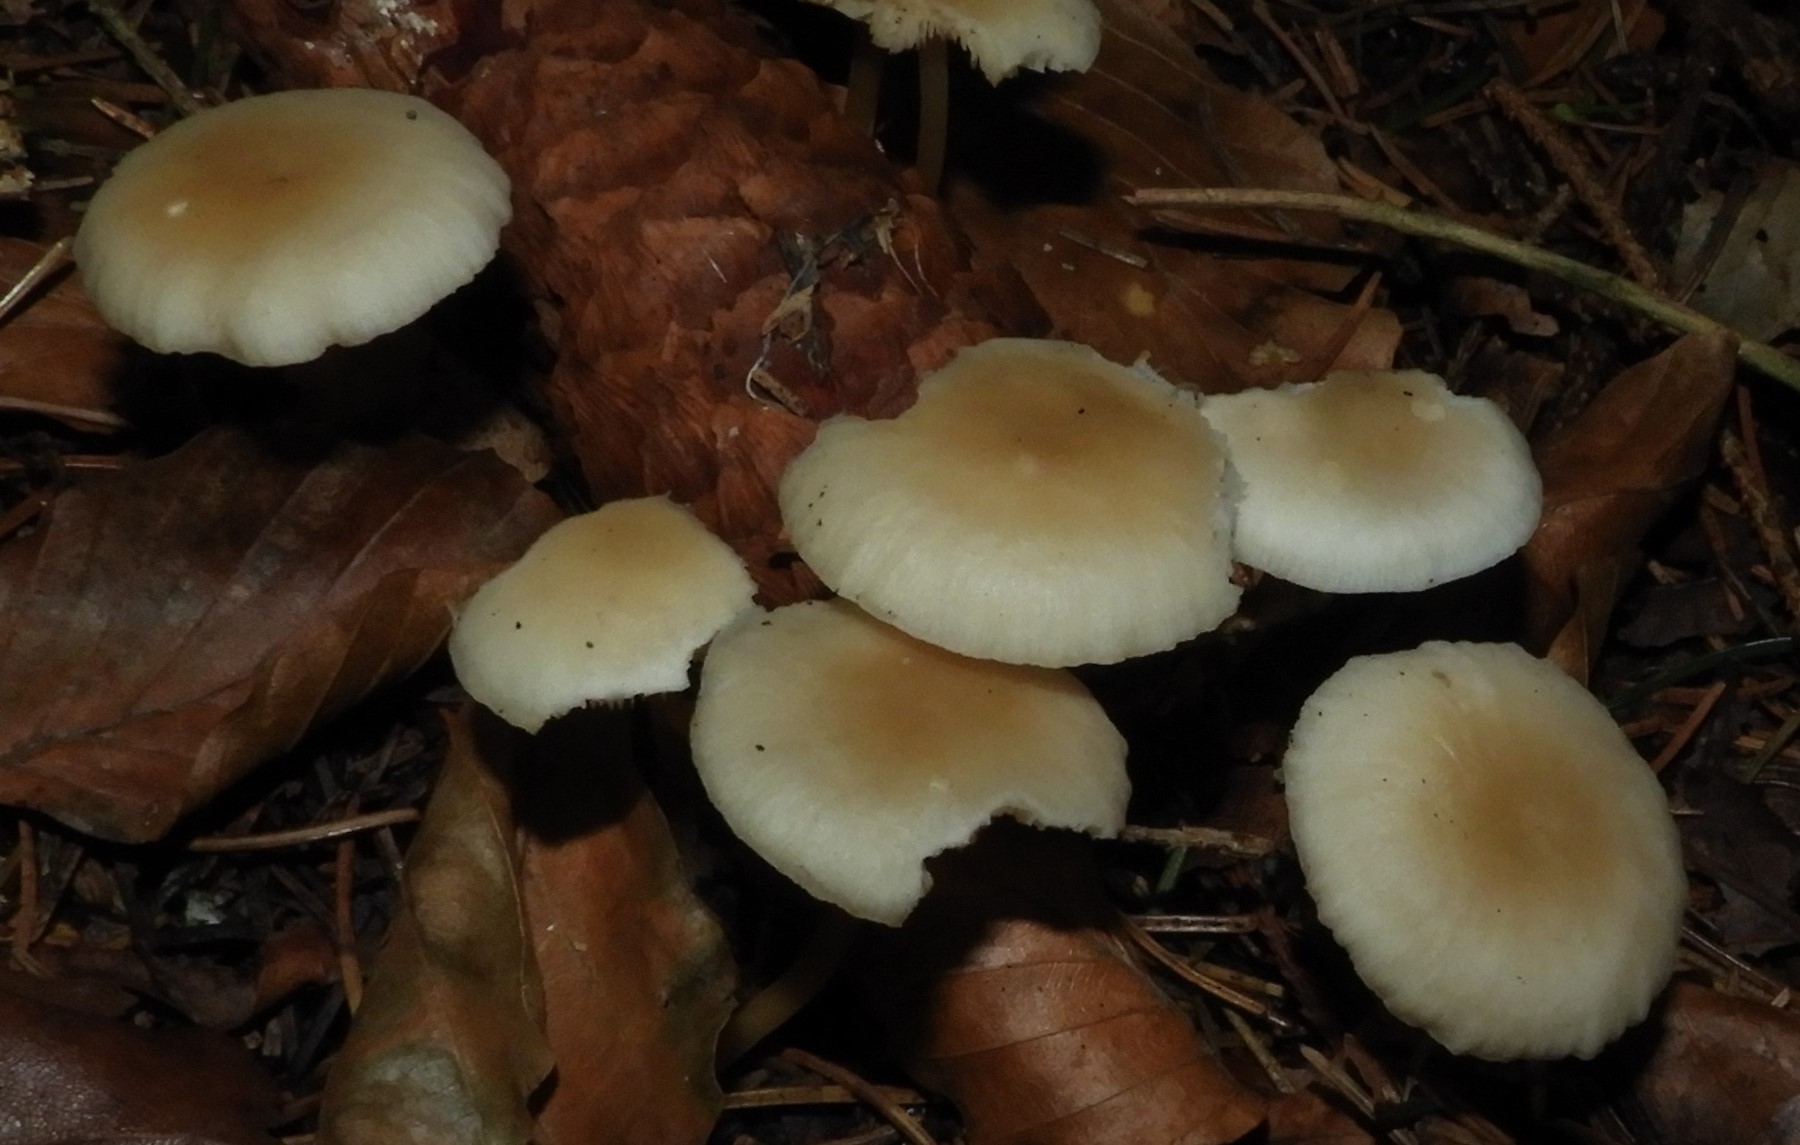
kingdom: Fungi
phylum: Basidiomycota
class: Agaricomycetes
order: Agaricales
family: Physalacriaceae
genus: Strobilurus
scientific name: Strobilurus esculentus
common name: gran-koglehat
